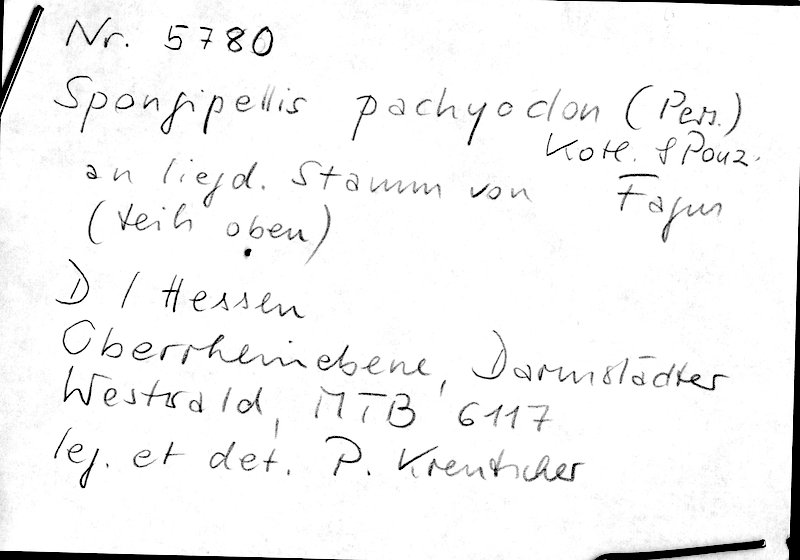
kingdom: Fungi
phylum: Basidiomycota
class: Agaricomycetes
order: Polyporales
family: Meruliaceae
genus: Irpiciporus
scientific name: Irpiciporus pachyodon
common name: Marshmallow polypore
